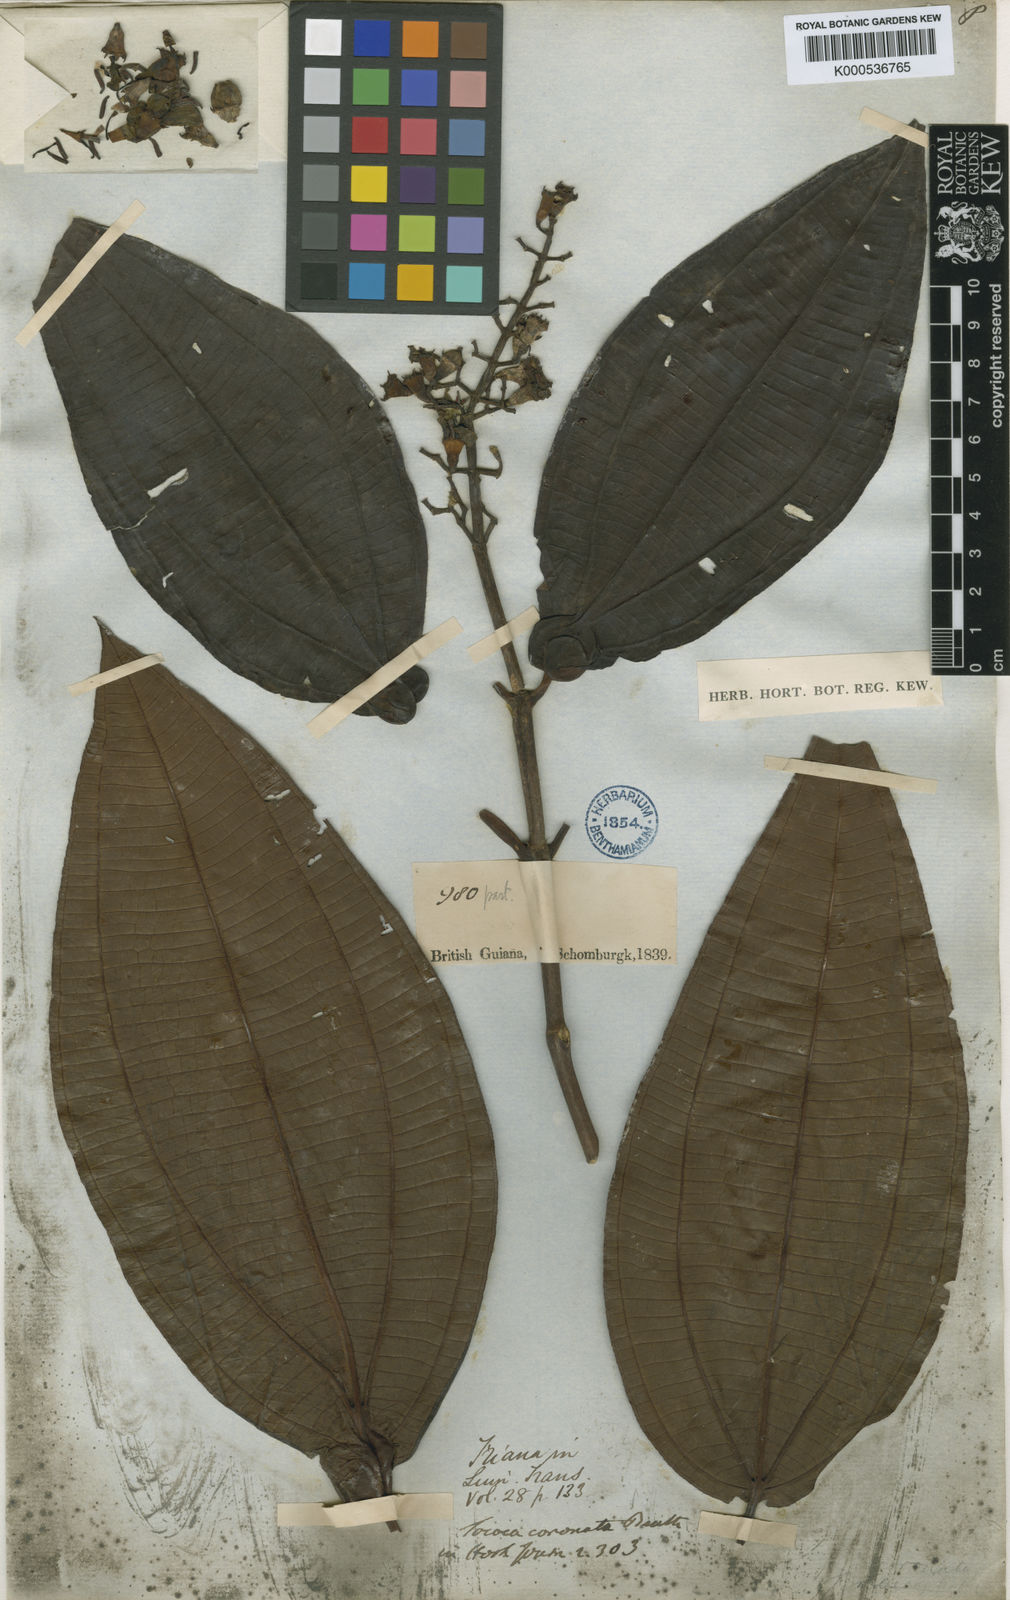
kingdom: Plantae
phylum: Tracheophyta
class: Magnoliopsida
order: Myrtales
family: Melastomataceae
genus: Miconia
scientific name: Miconia tococoronata
